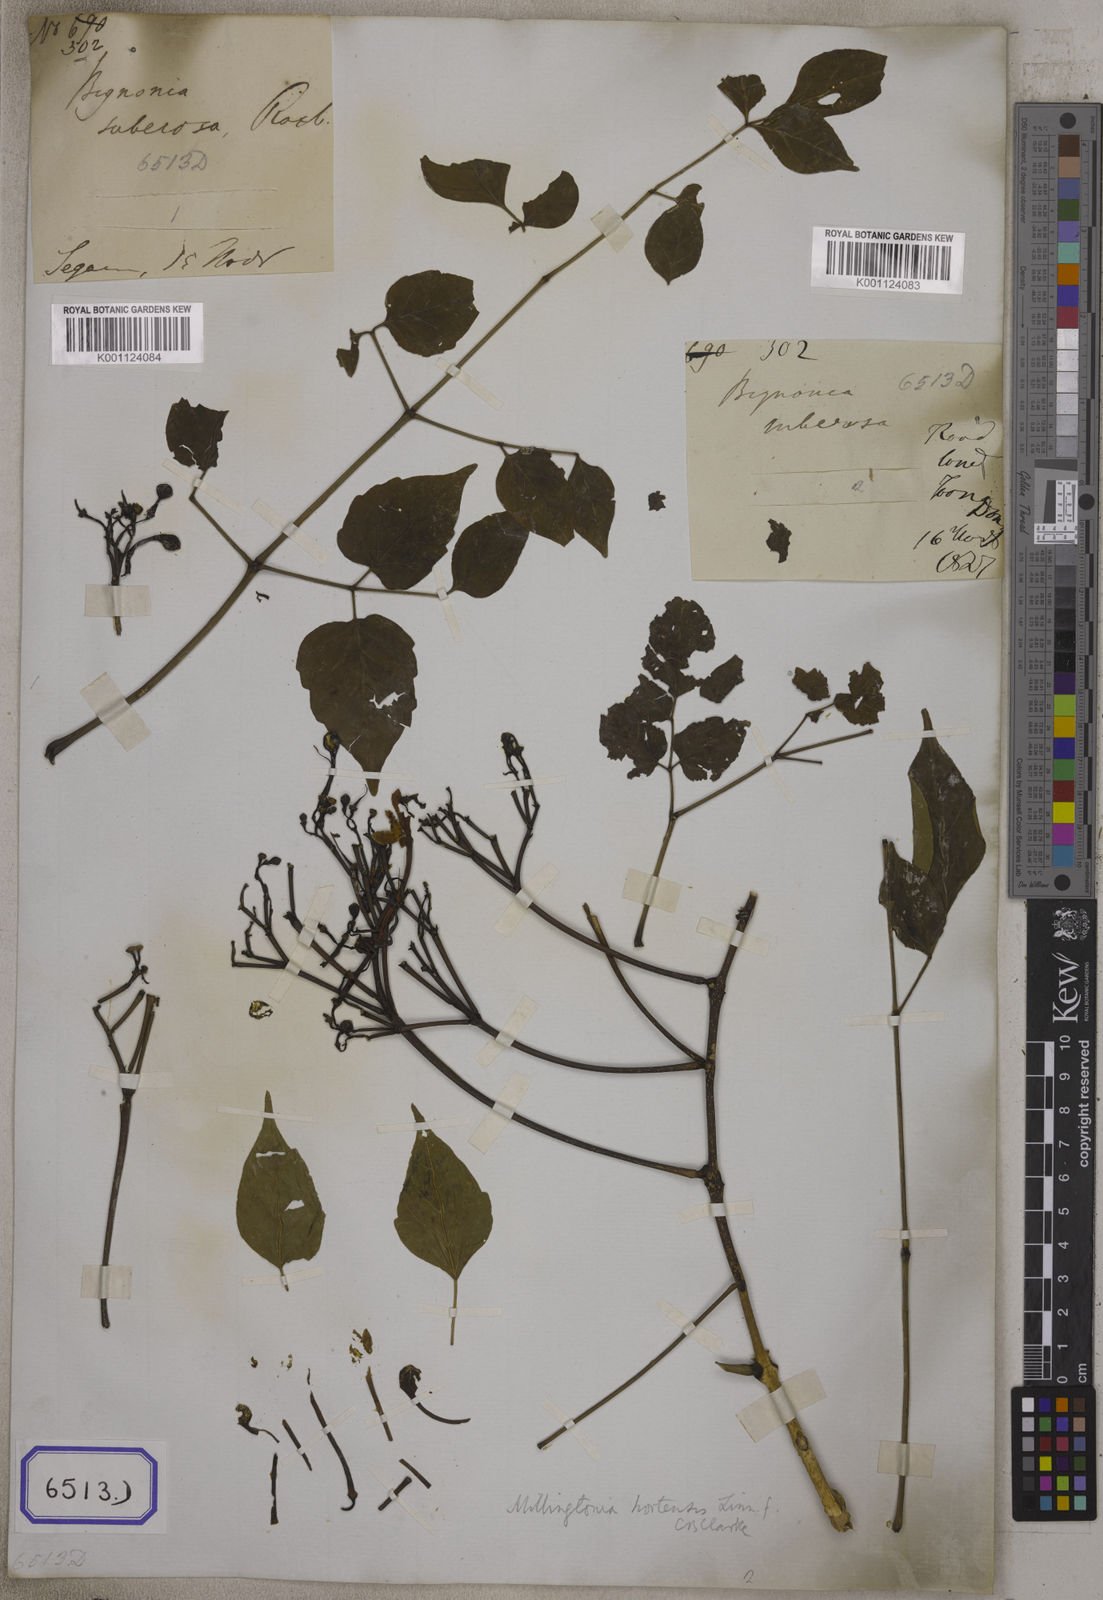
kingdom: Plantae
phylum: Tracheophyta
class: Magnoliopsida
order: Lamiales
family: Bignoniaceae
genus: Bignonia
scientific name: Bignonia
